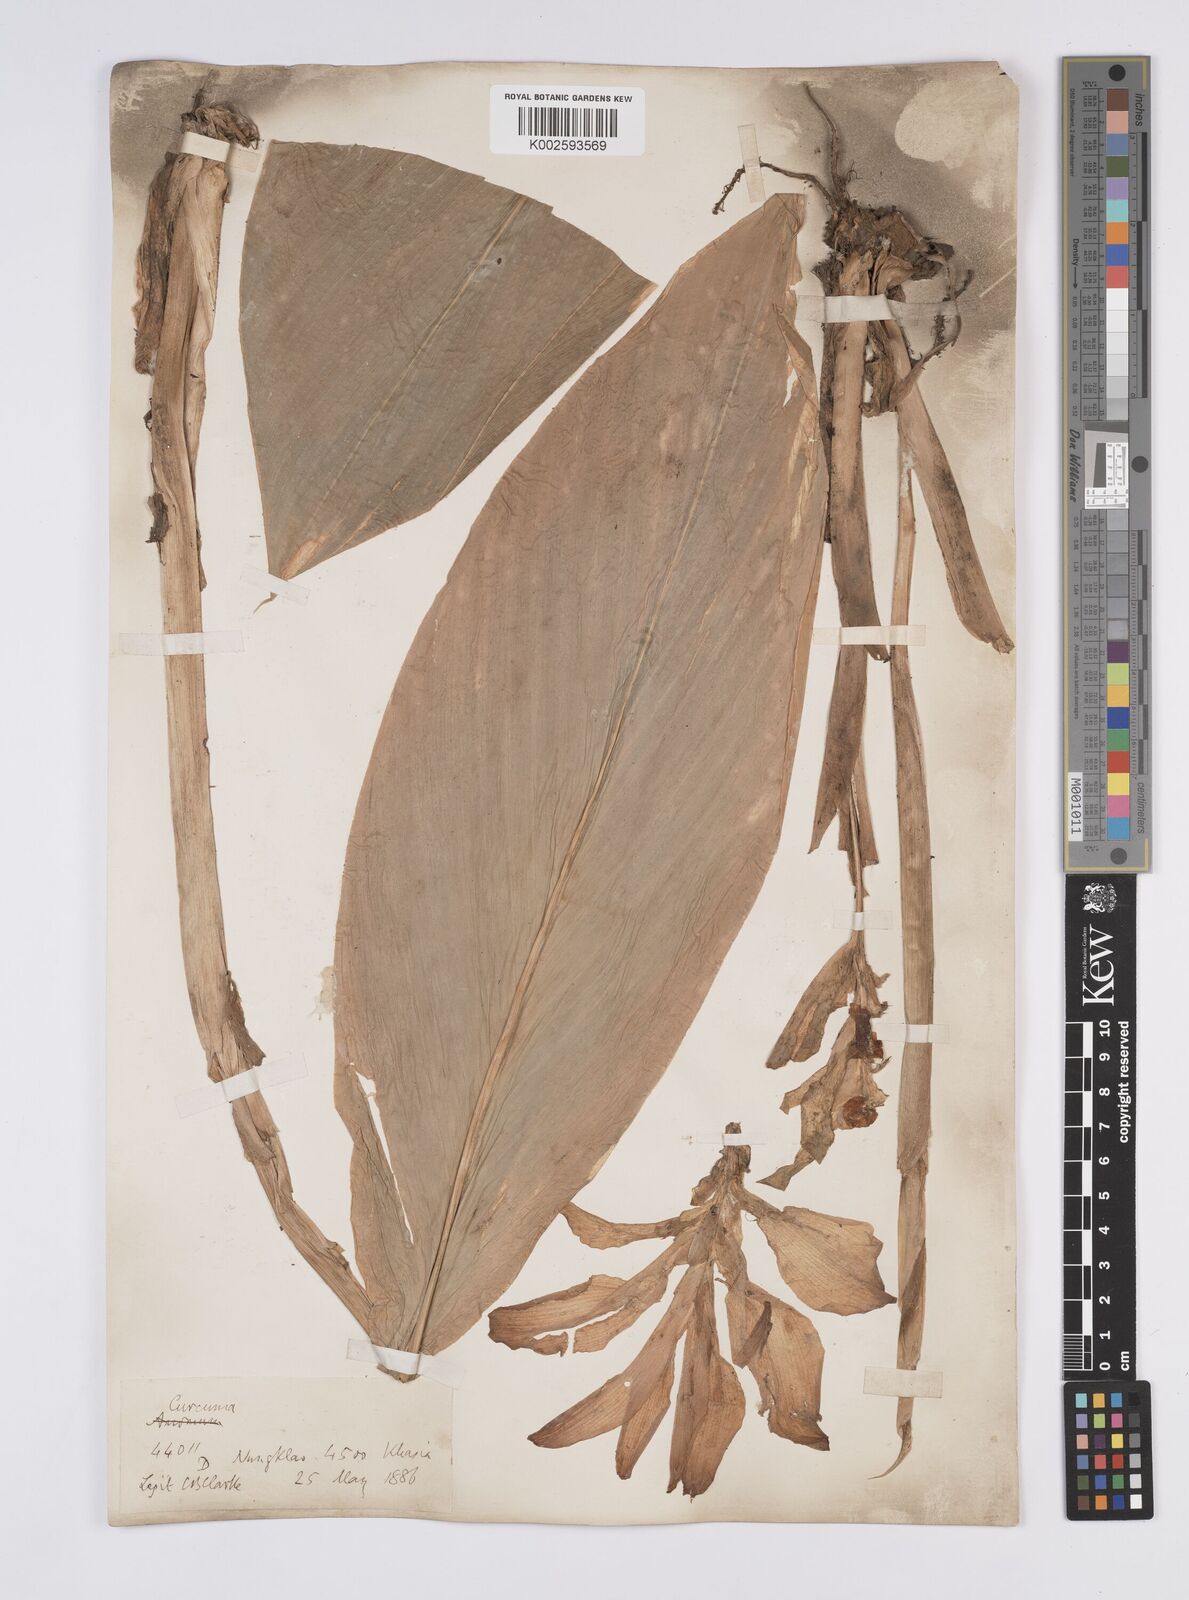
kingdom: Plantae
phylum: Tracheophyta
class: Liliopsida
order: Zingiberales
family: Zingiberaceae
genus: Curcuma
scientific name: Curcuma aromatica
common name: Wild turmeric
